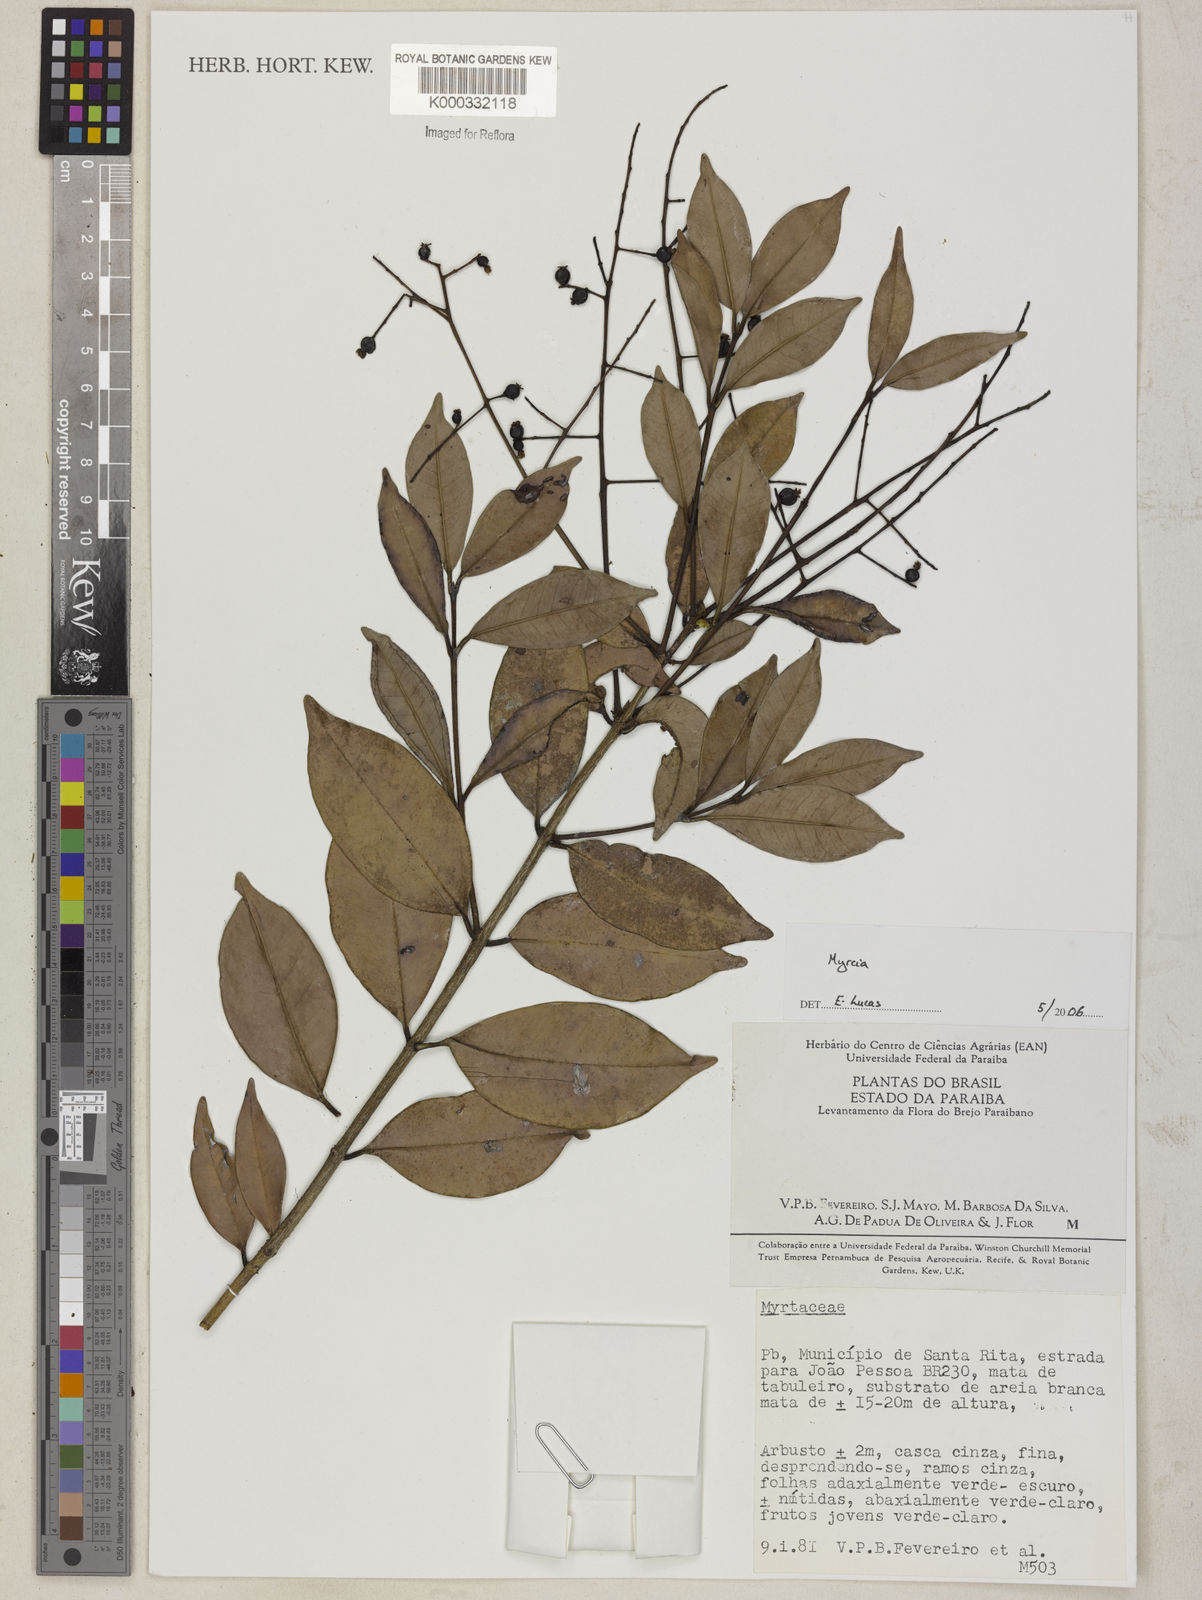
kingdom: Plantae
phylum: Tracheophyta
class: Magnoliopsida
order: Myrtales
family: Myrtaceae
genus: Myrcia
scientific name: Myrcia
